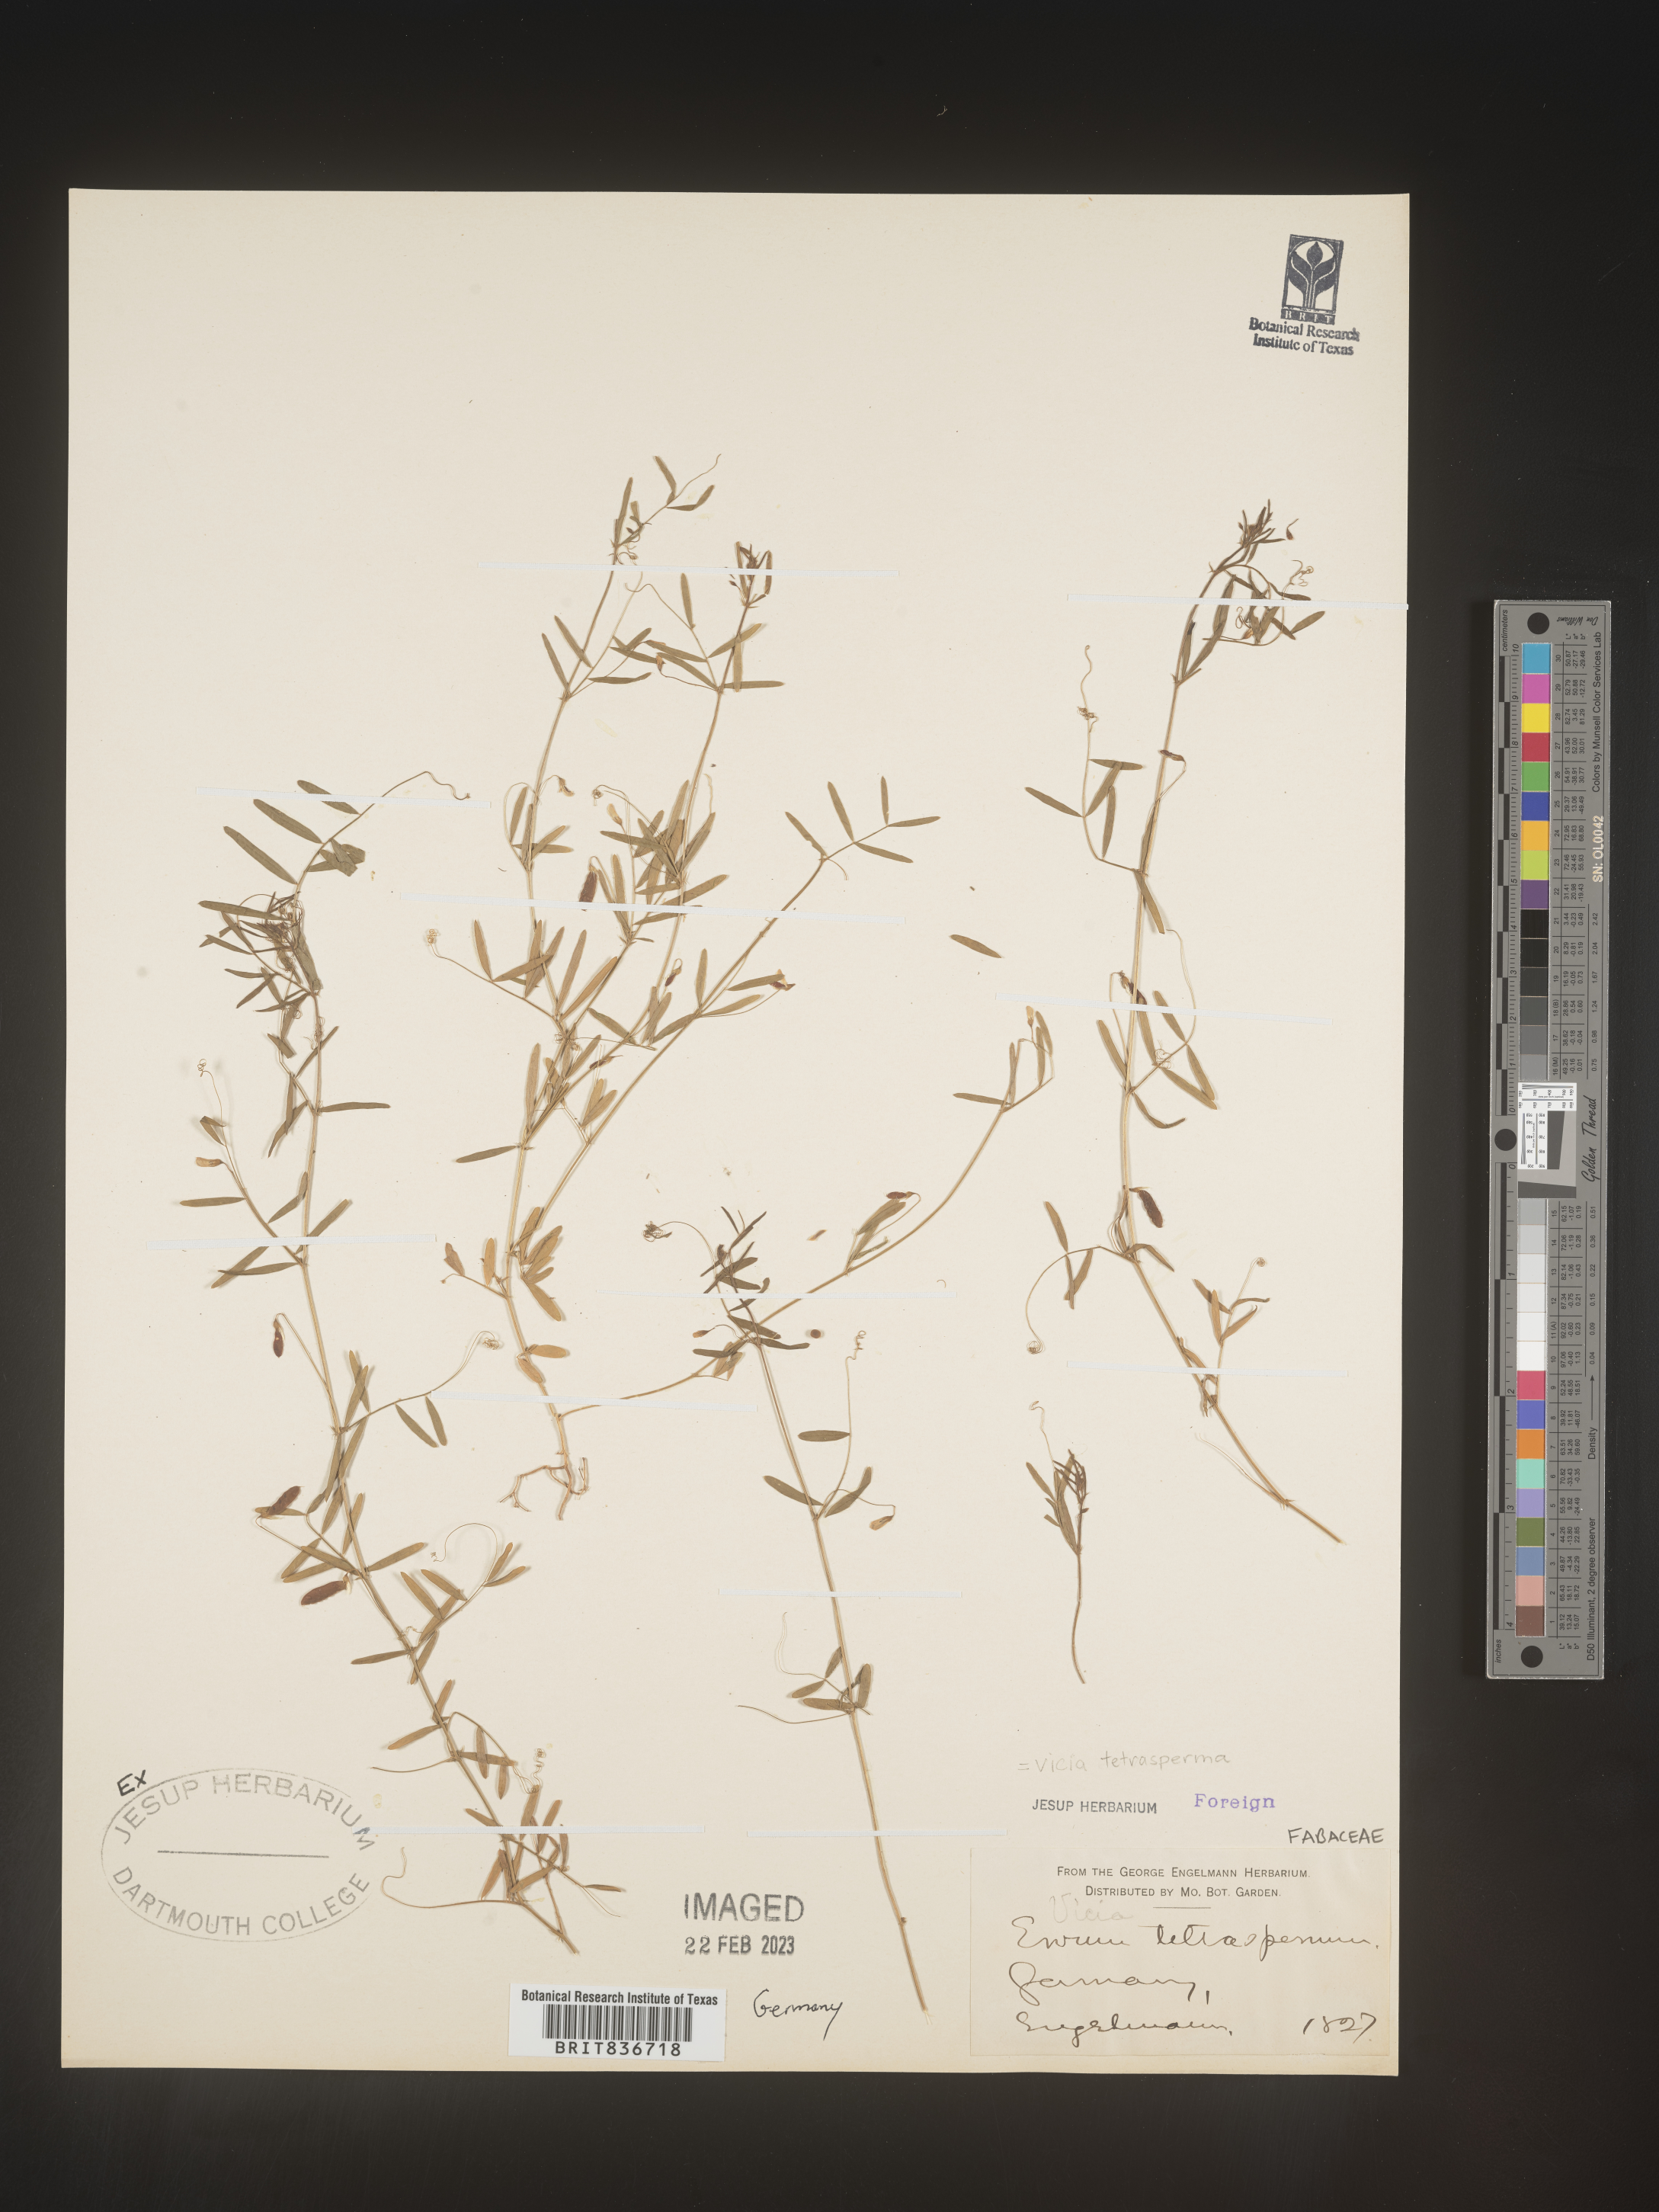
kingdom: Plantae
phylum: Tracheophyta
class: Magnoliopsida
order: Fabales
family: Fabaceae
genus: Vicia
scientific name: Vicia sylvatica
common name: Wood vetch
